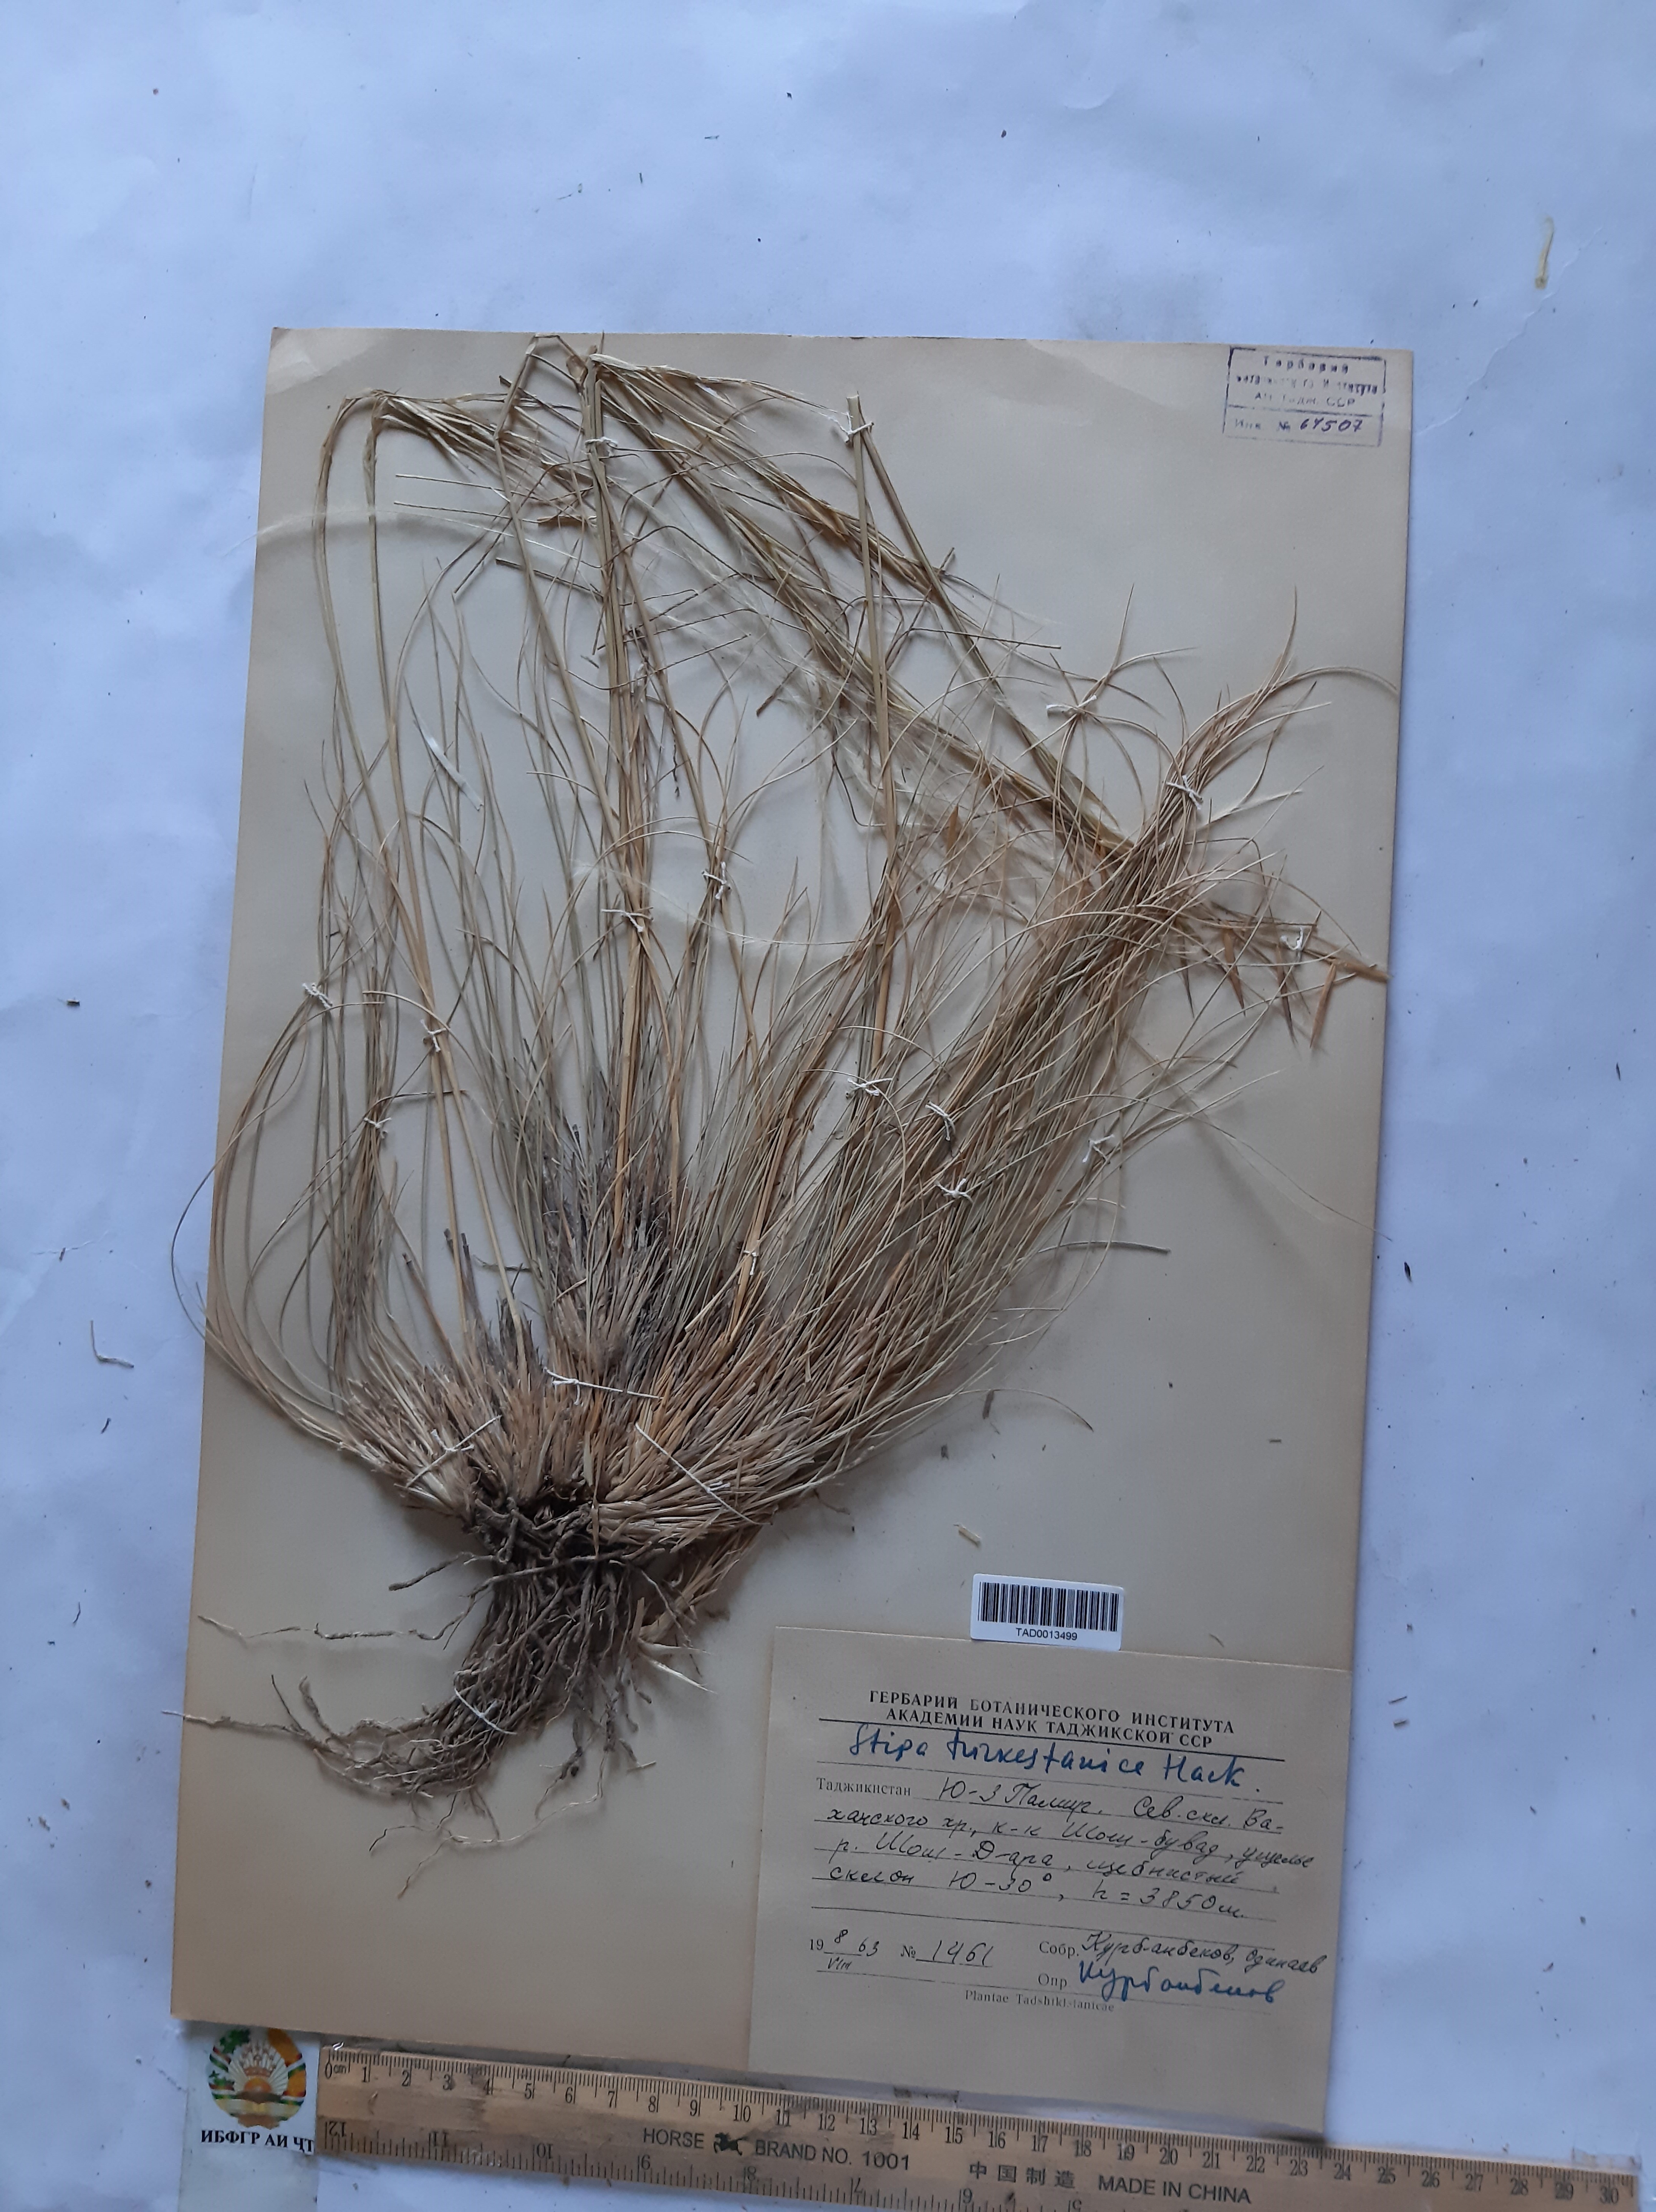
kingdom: Plantae
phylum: Tracheophyta
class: Liliopsida
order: Poales
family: Poaceae
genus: Stipa
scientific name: Stipa turkestanica
